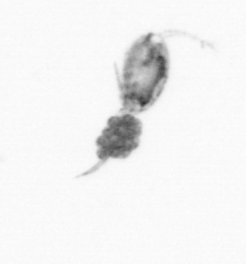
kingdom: Animalia
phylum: Arthropoda
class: Copepoda
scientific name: Copepoda
